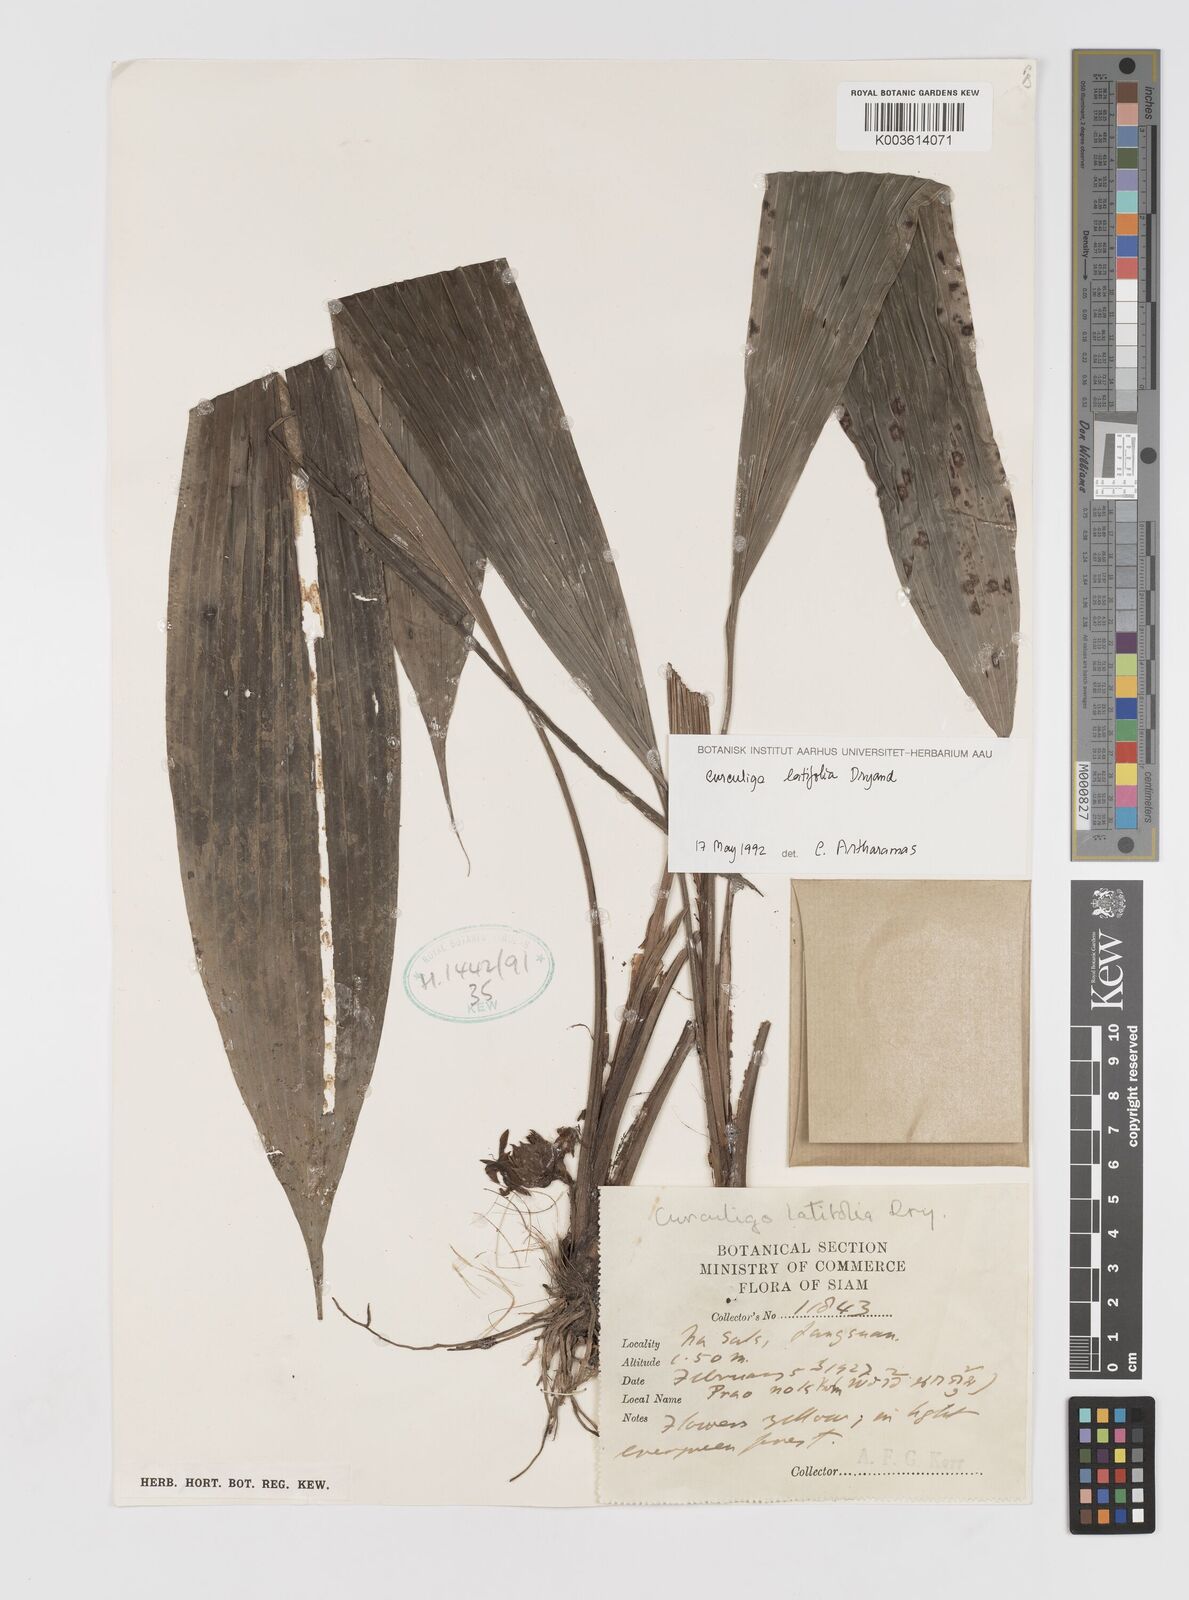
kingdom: Plantae
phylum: Tracheophyta
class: Liliopsida
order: Asparagales
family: Hypoxidaceae
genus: Curculigo
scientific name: Curculigo latifolia
